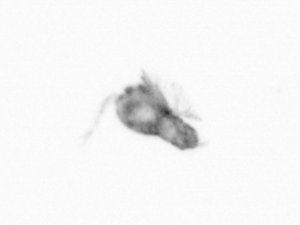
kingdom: Animalia
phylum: Arthropoda
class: Copepoda
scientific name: Copepoda
